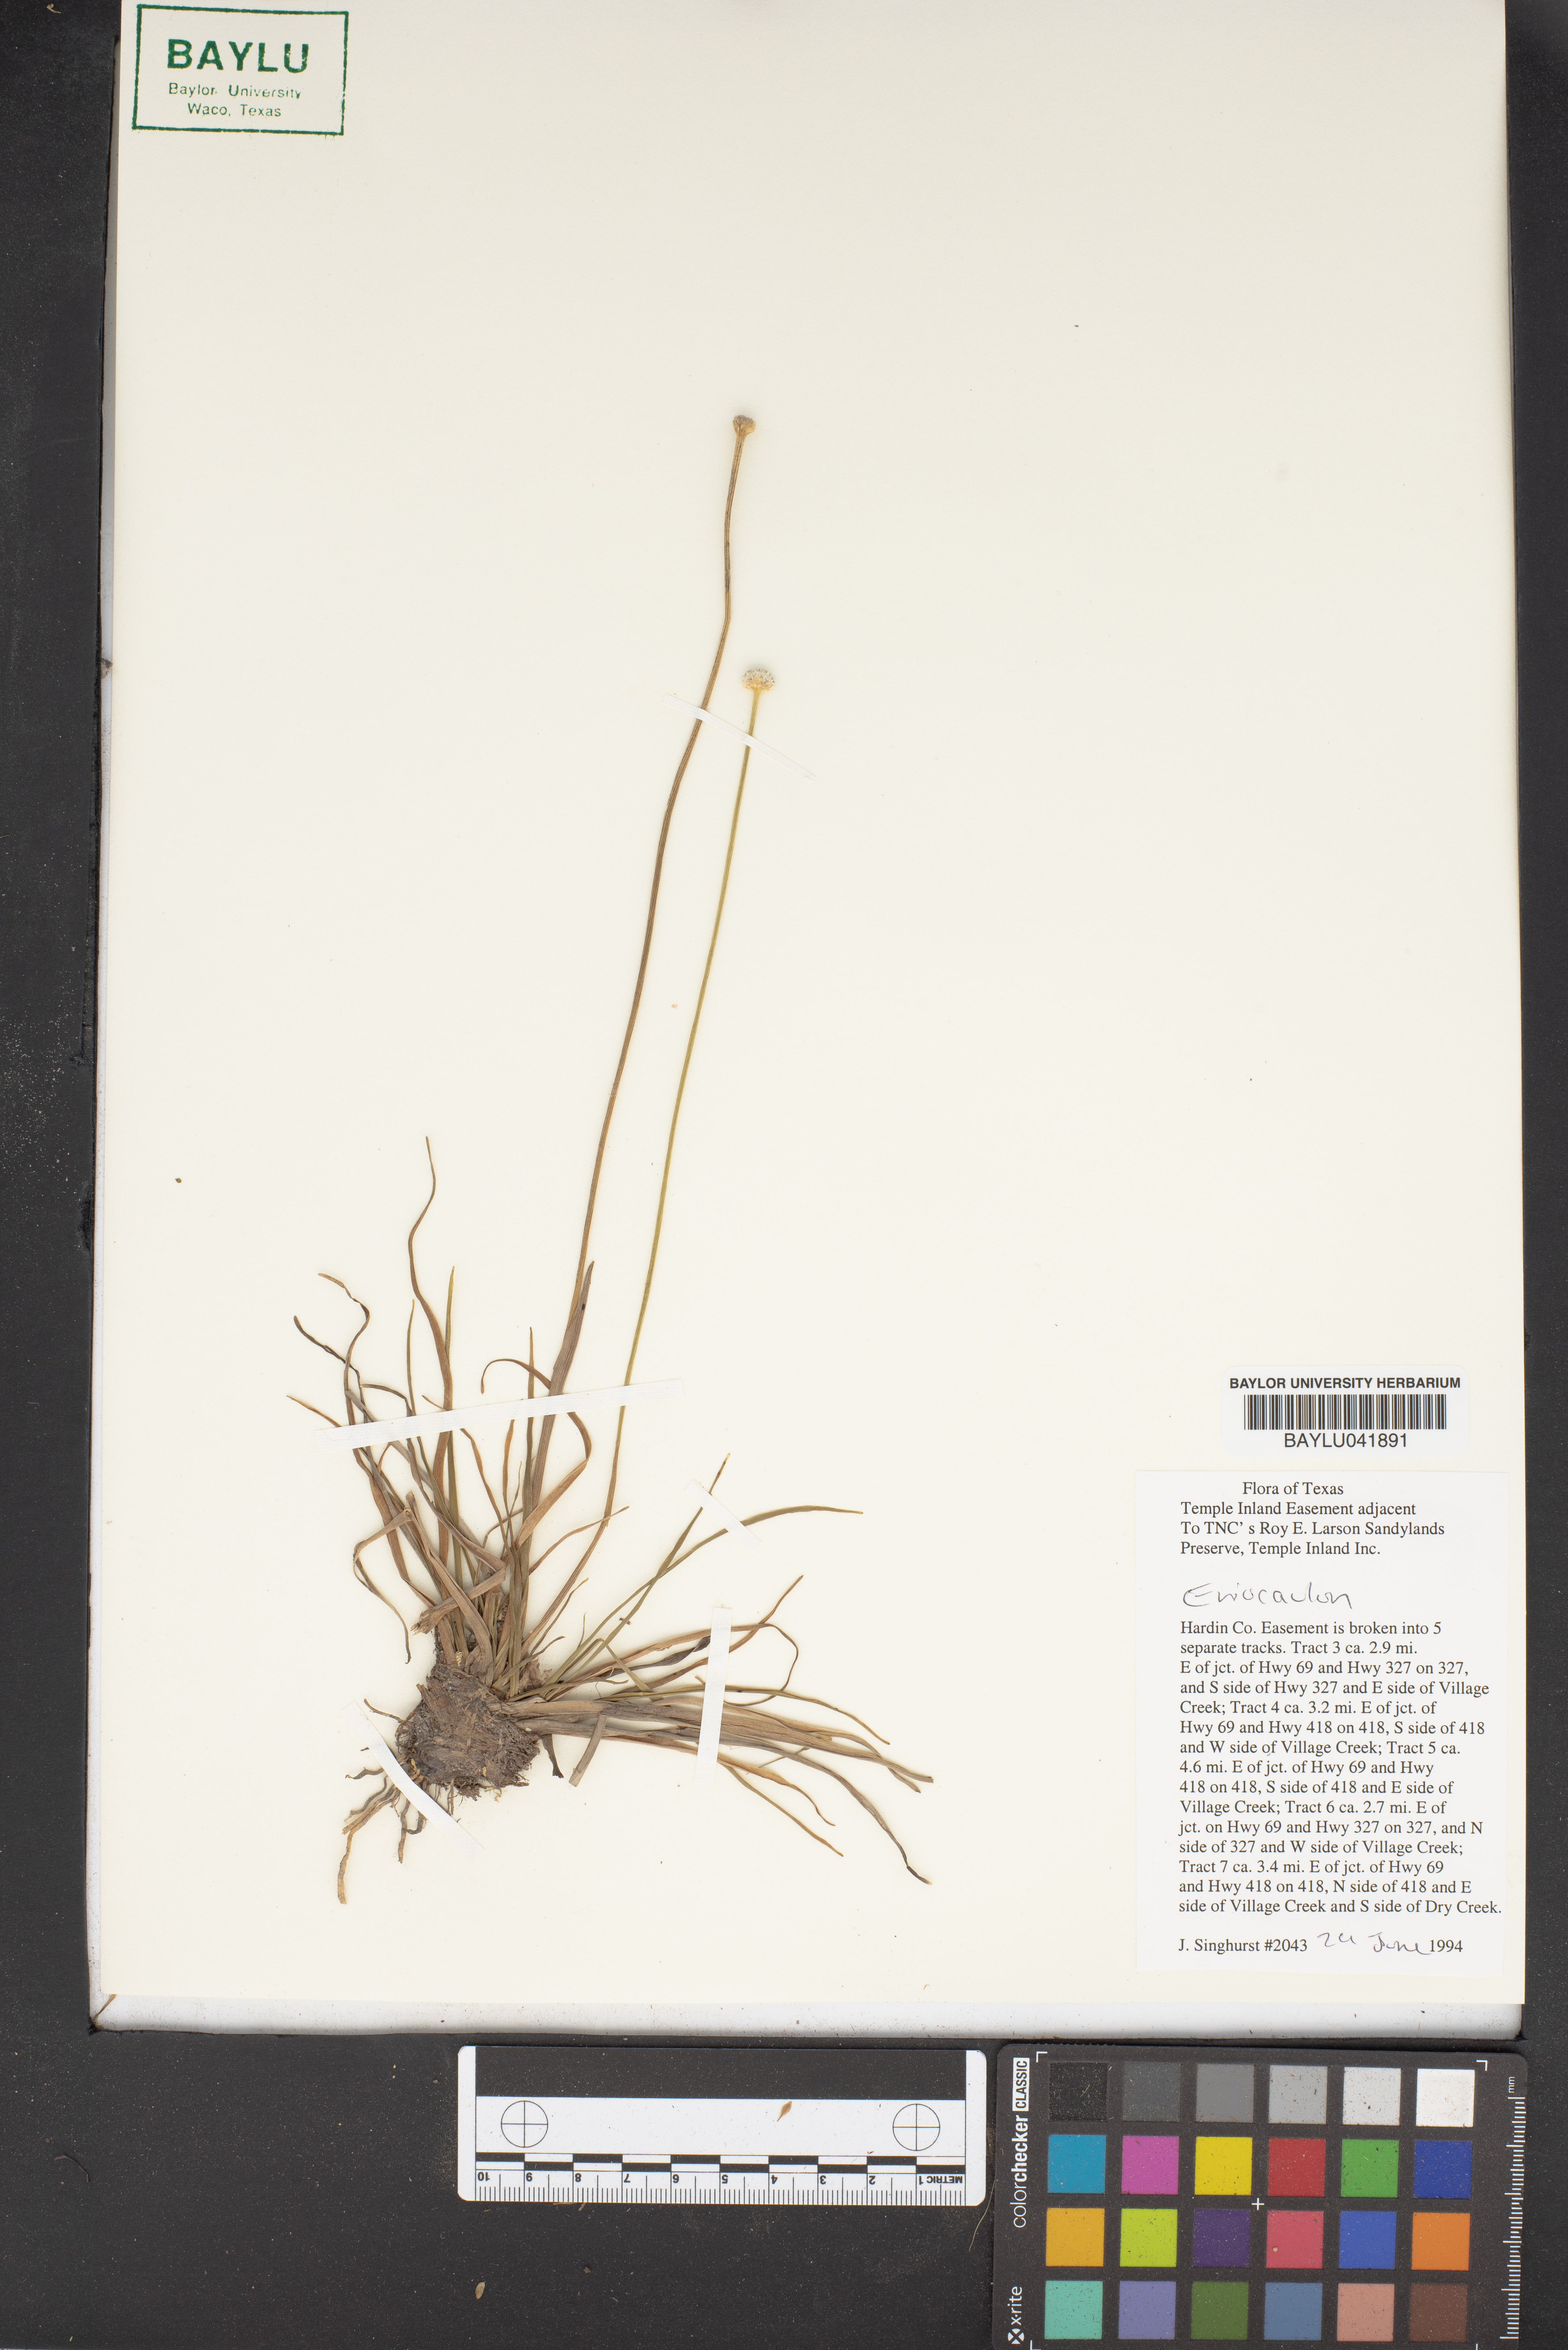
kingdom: Plantae
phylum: Tracheophyta
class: Liliopsida
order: Poales
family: Eriocaulaceae
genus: Eriocaulon
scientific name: Eriocaulon
